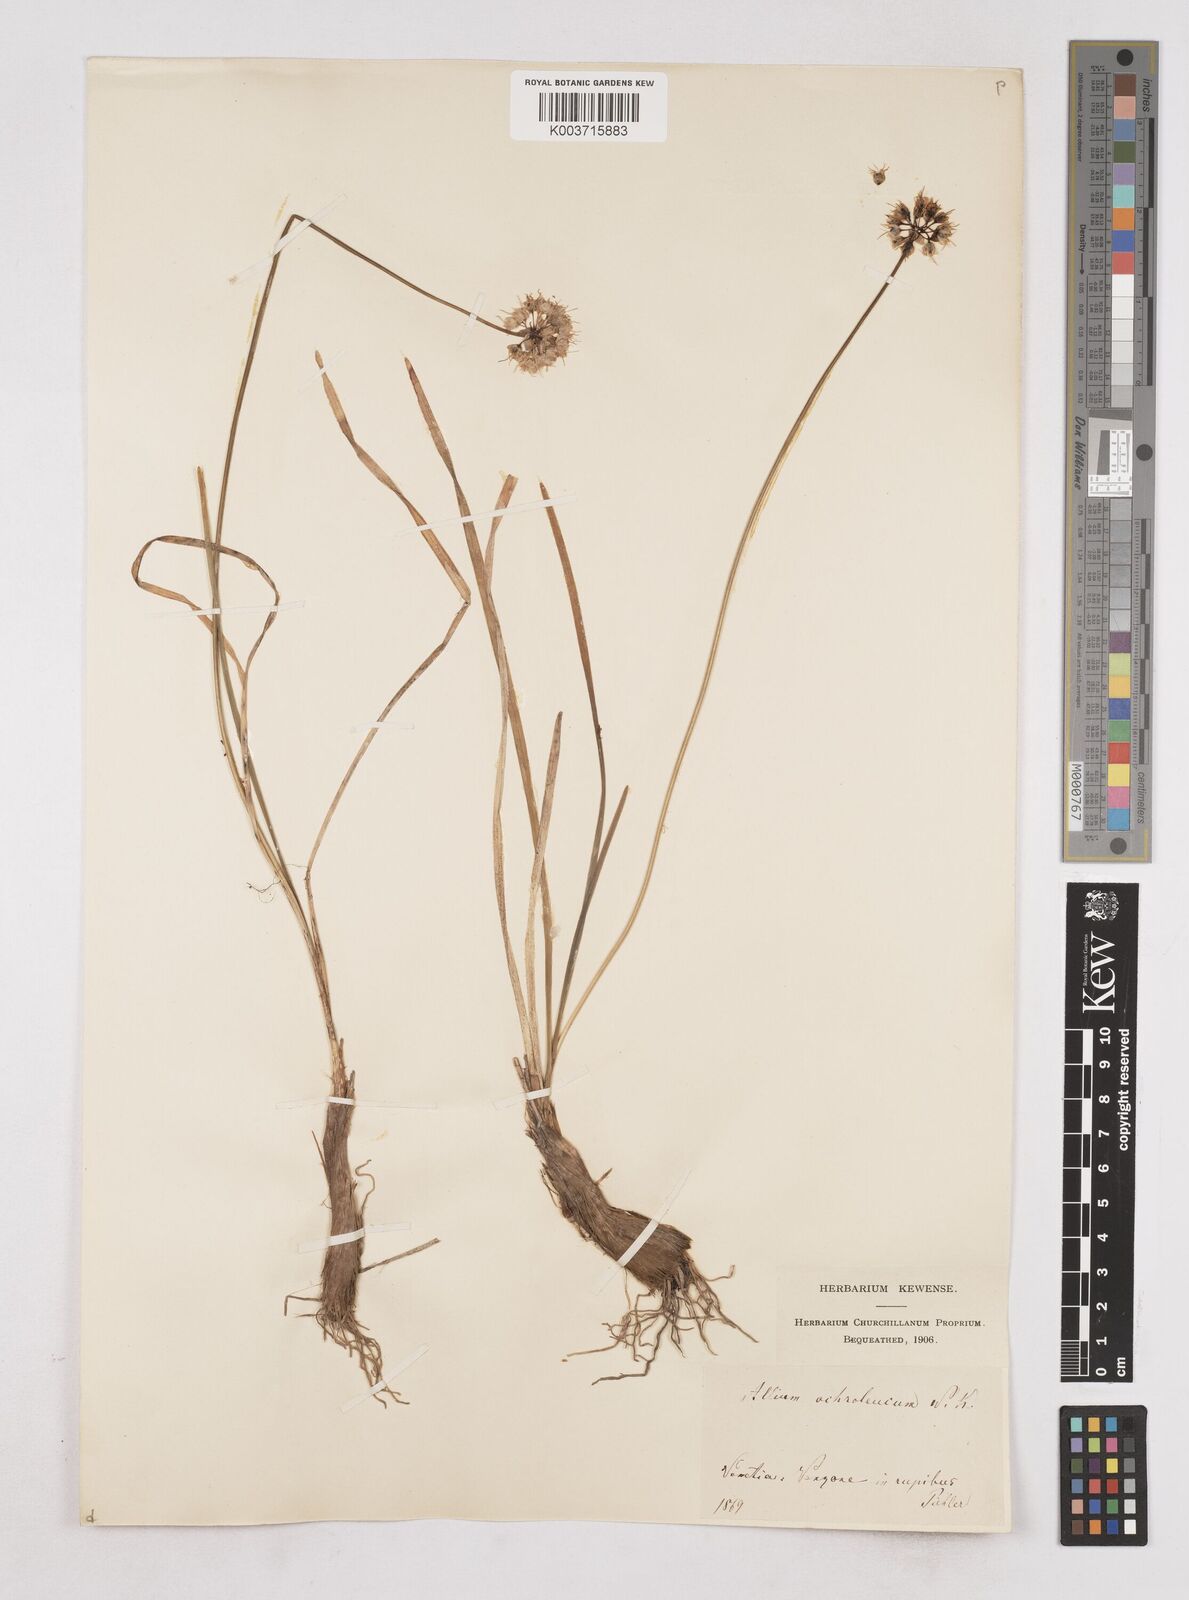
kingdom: Plantae
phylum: Tracheophyta
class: Liliopsida
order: Asparagales
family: Amaryllidaceae
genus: Allium
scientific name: Allium ericetorum
